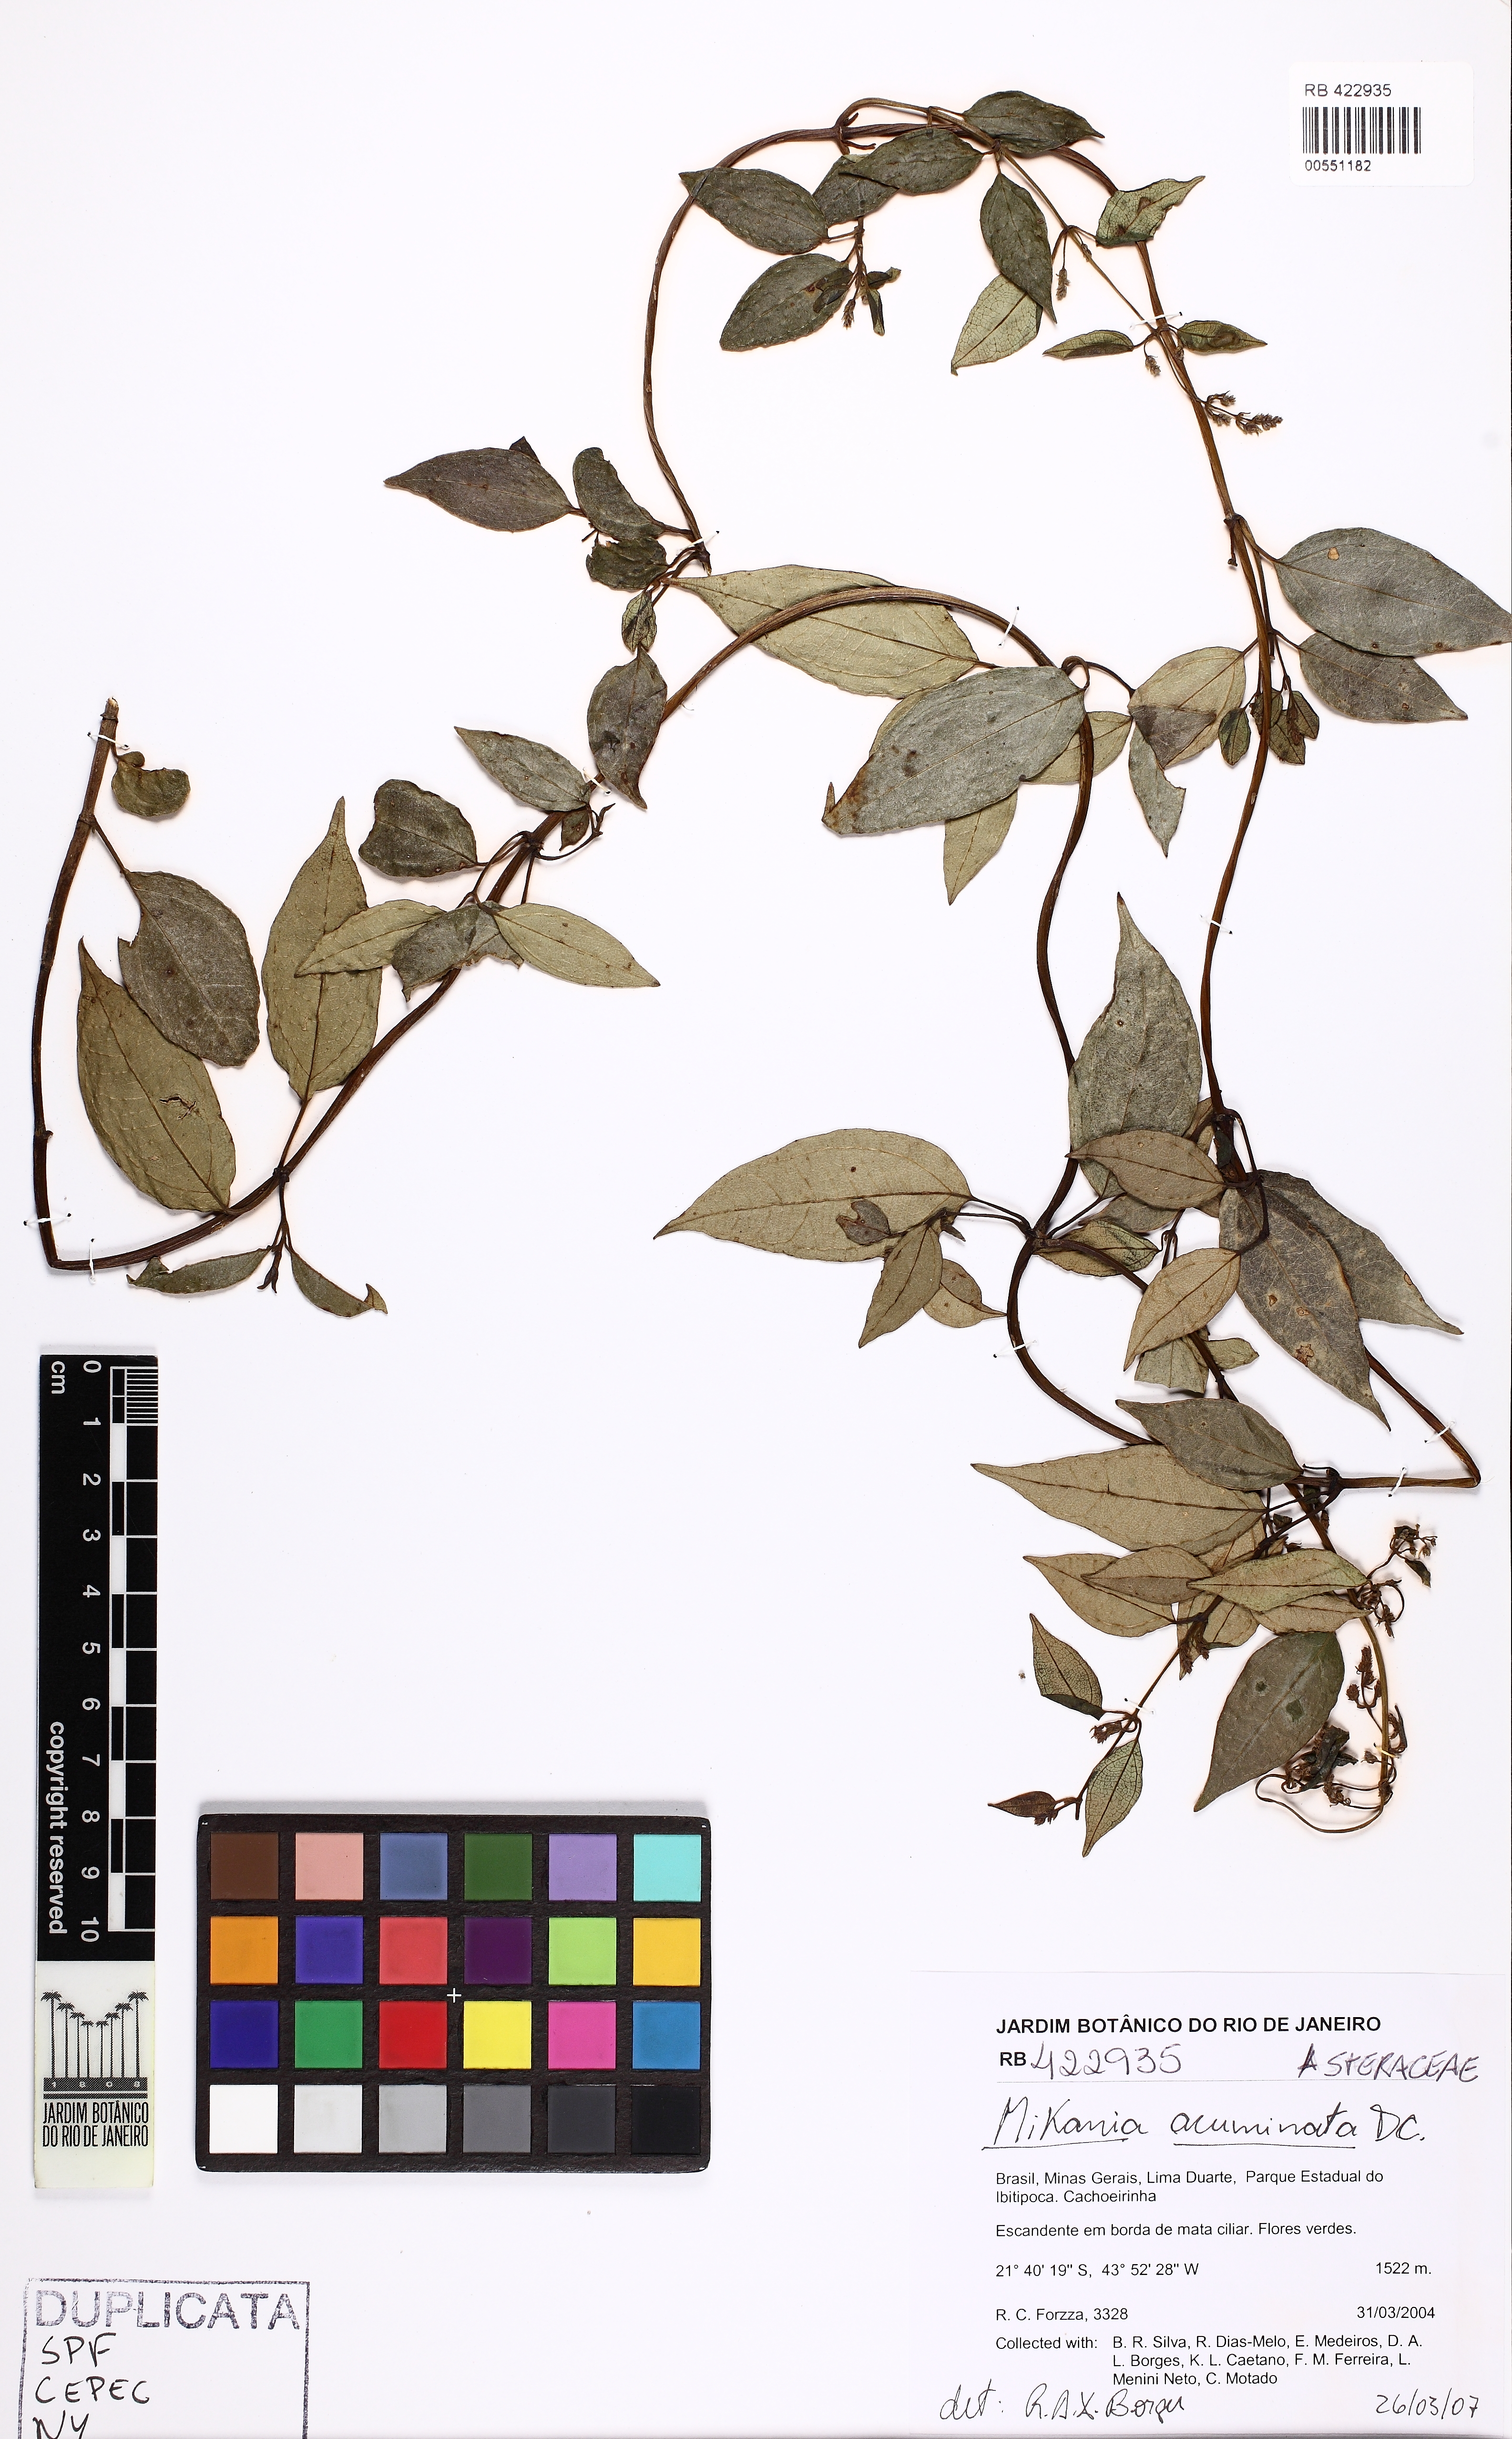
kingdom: Plantae
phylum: Tracheophyta
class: Magnoliopsida
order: Asterales
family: Asteraceae
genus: Mikania
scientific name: Mikania acuminata
